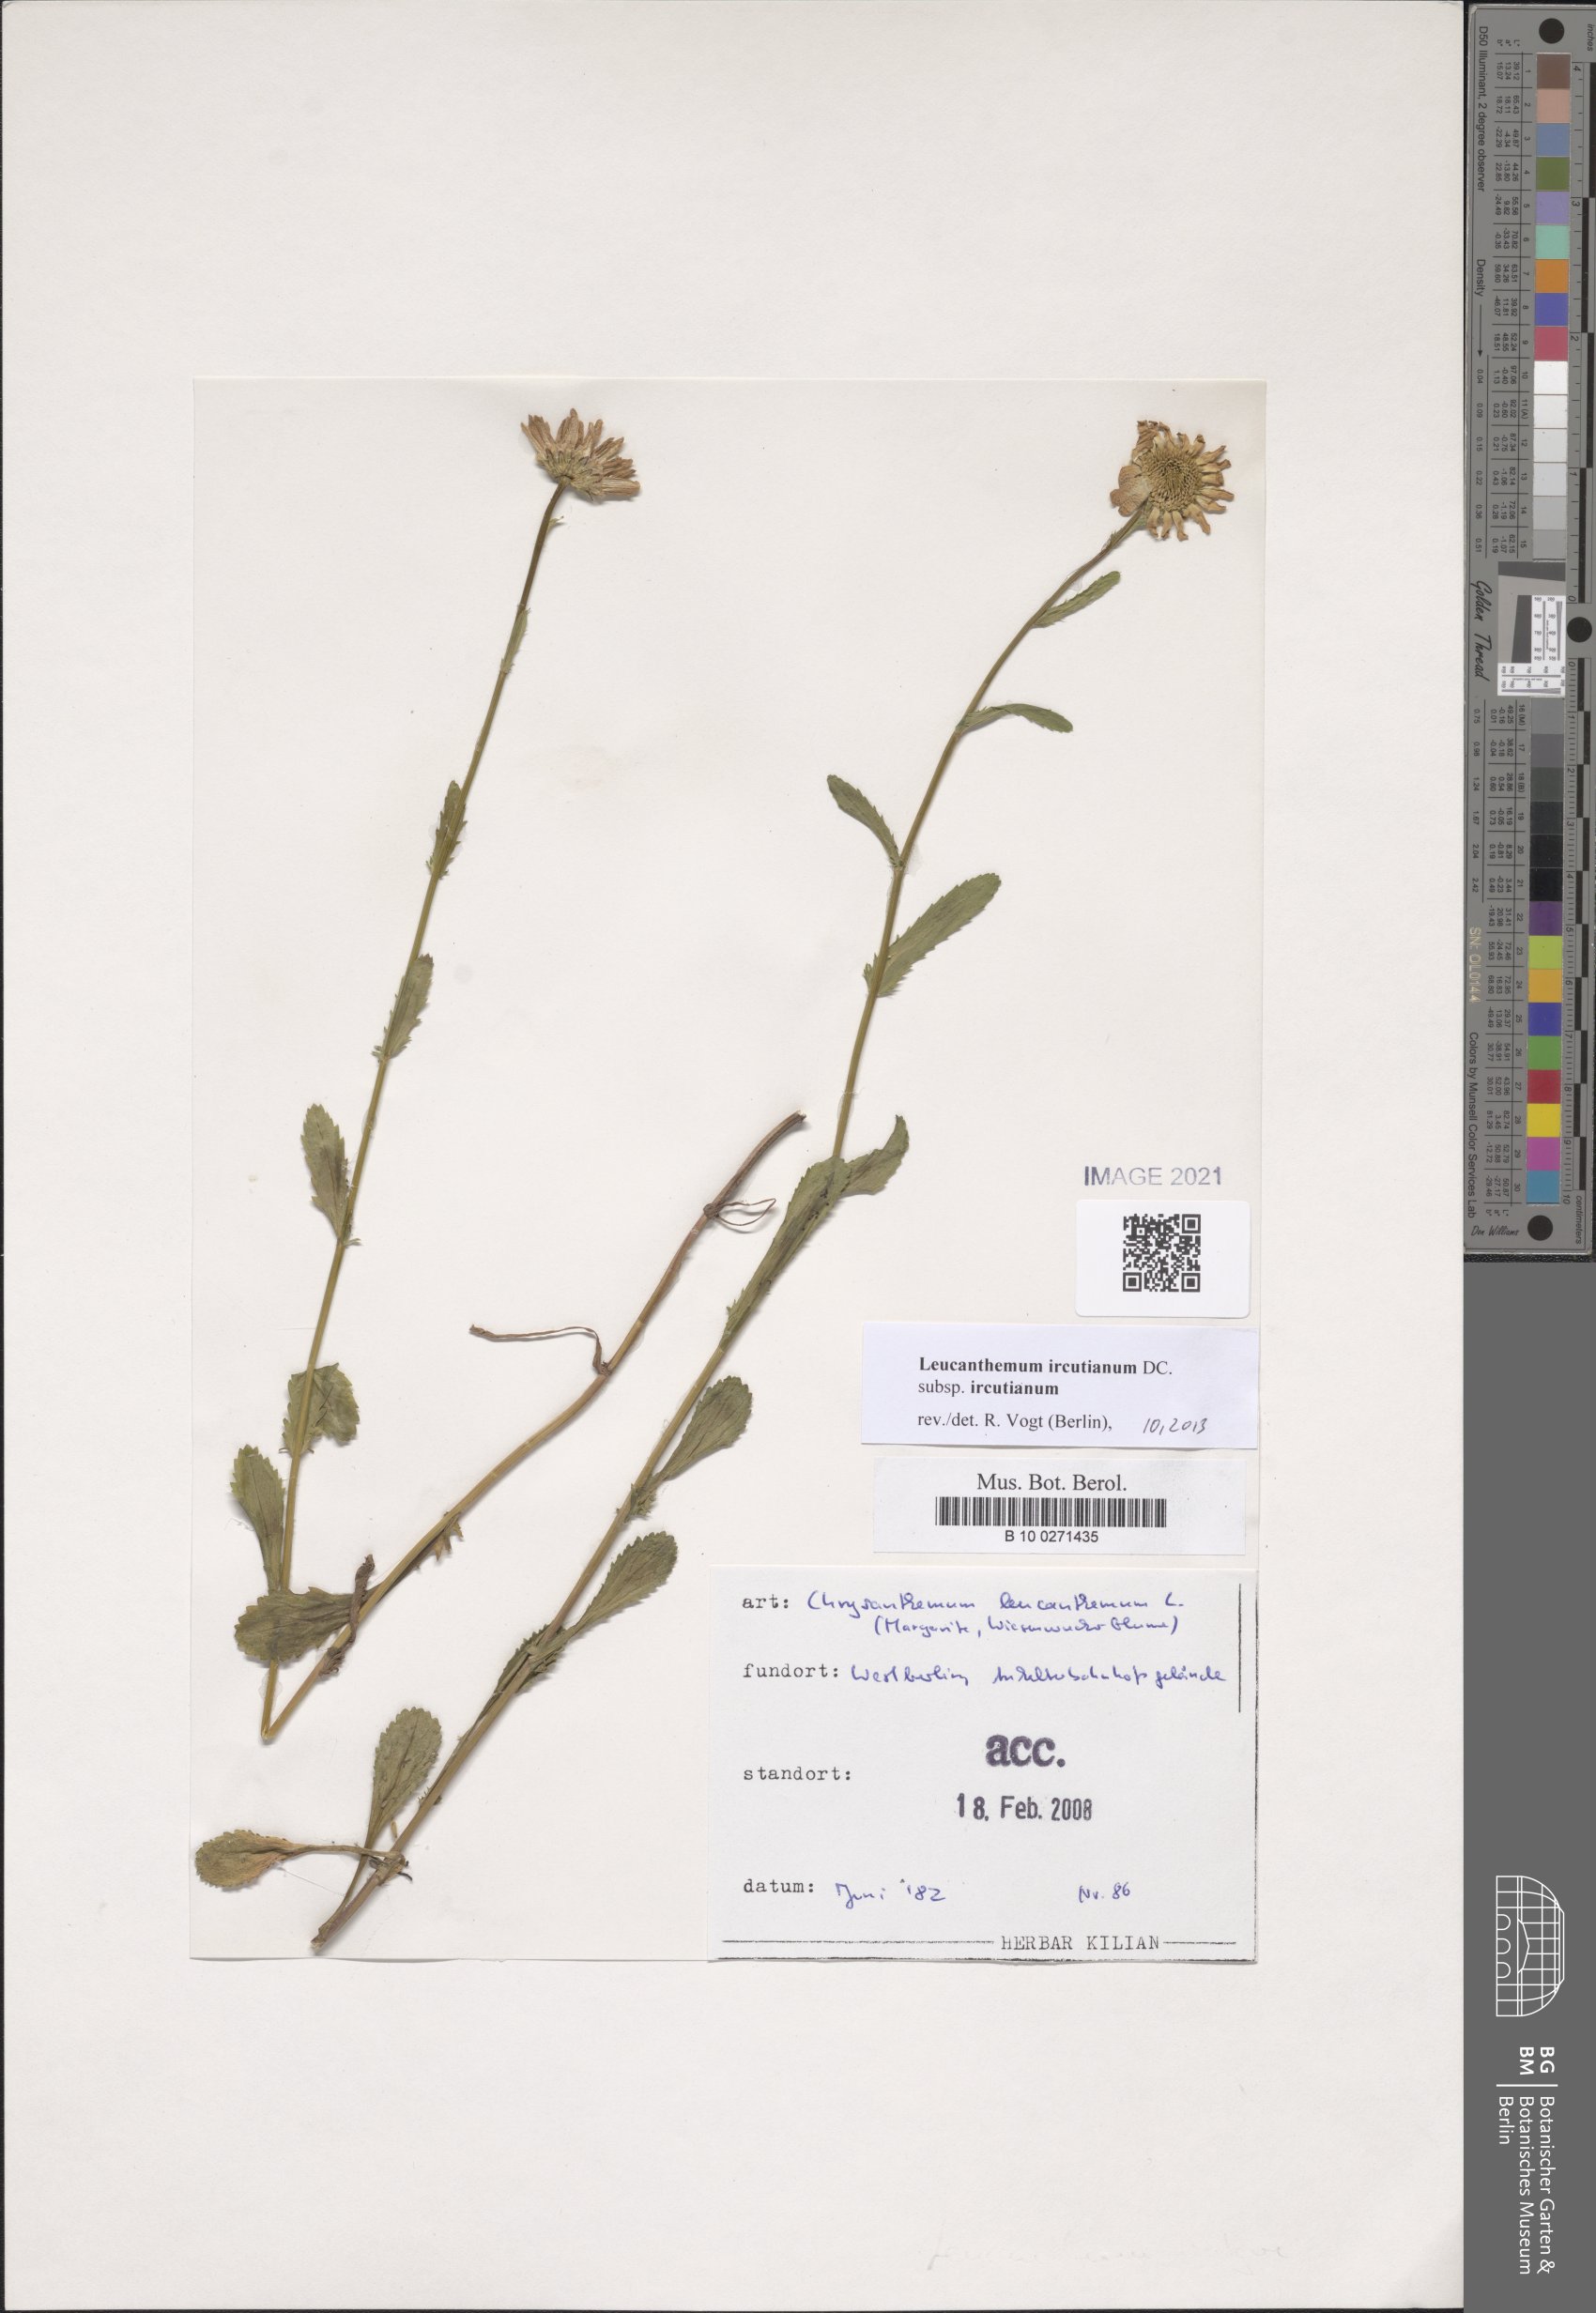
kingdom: Plantae
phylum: Tracheophyta
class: Magnoliopsida
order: Asterales
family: Asteraceae
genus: Leucanthemum
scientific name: Leucanthemum ircutianum
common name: Daisy
